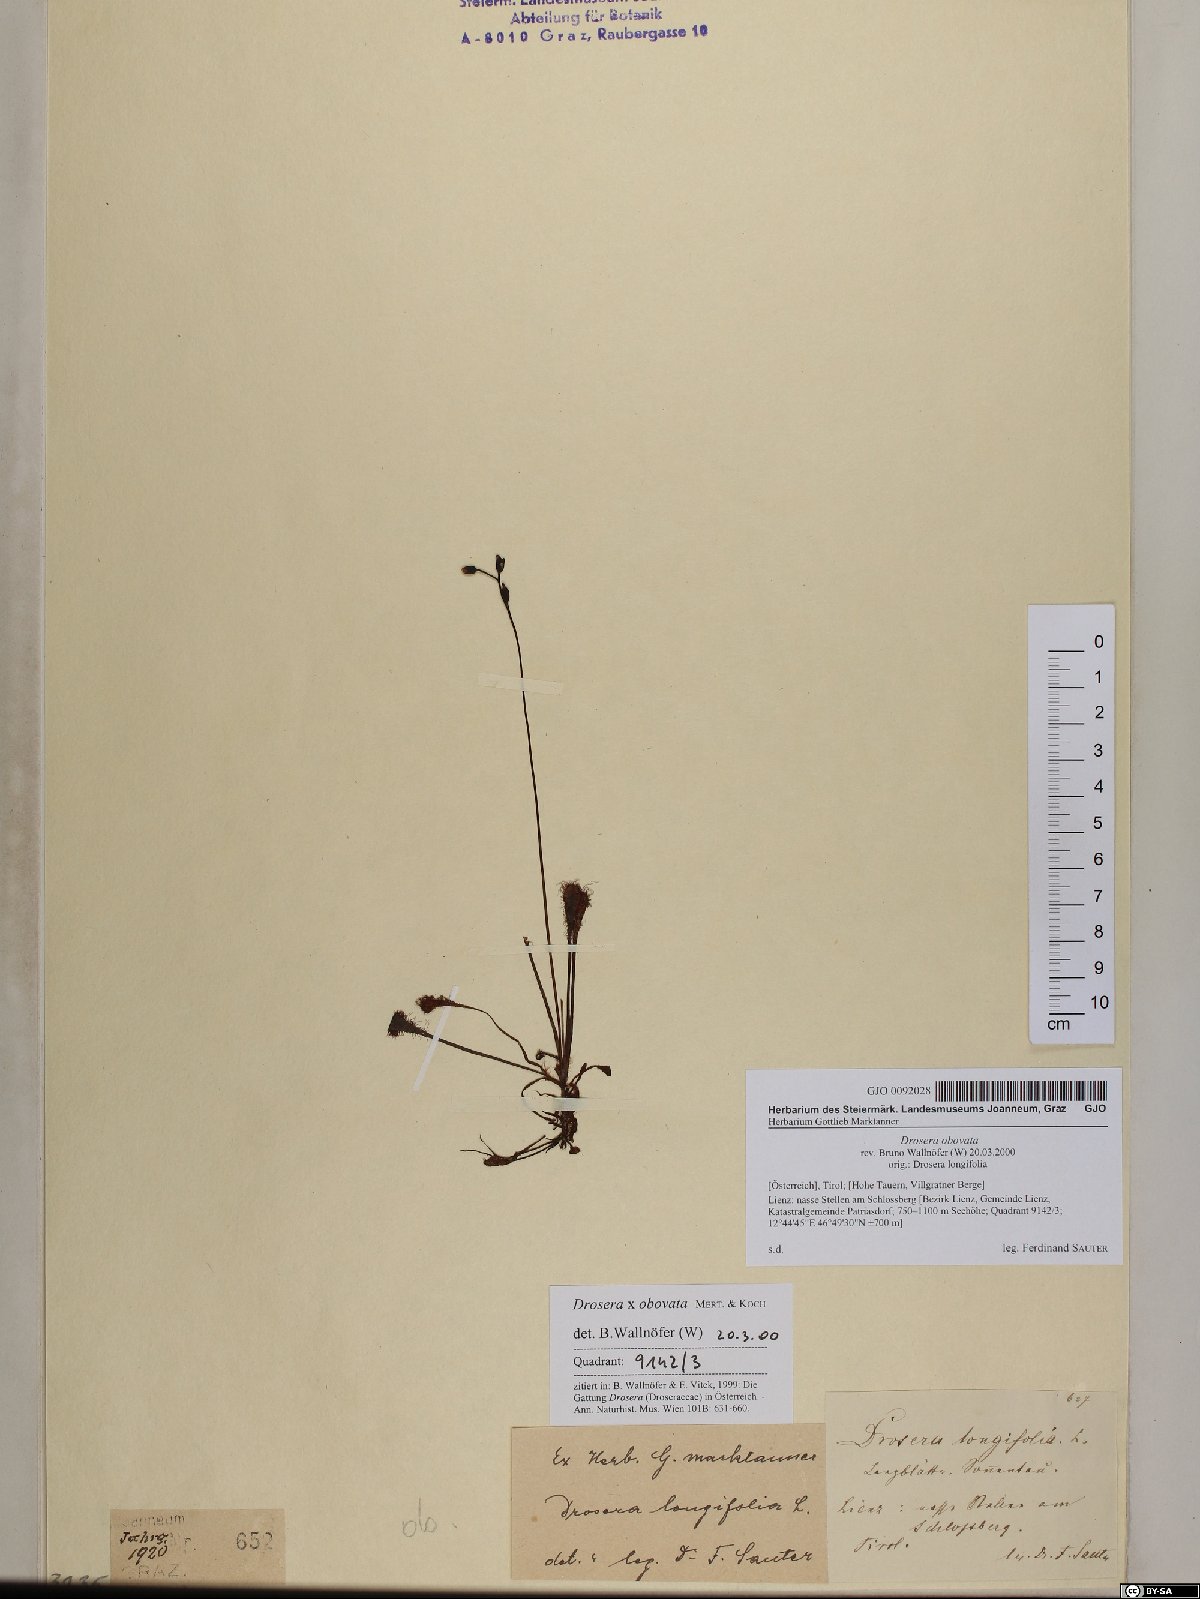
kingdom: Plantae
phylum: Tracheophyta
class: Magnoliopsida
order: Caryophyllales
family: Droseraceae
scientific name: Droseraceae
